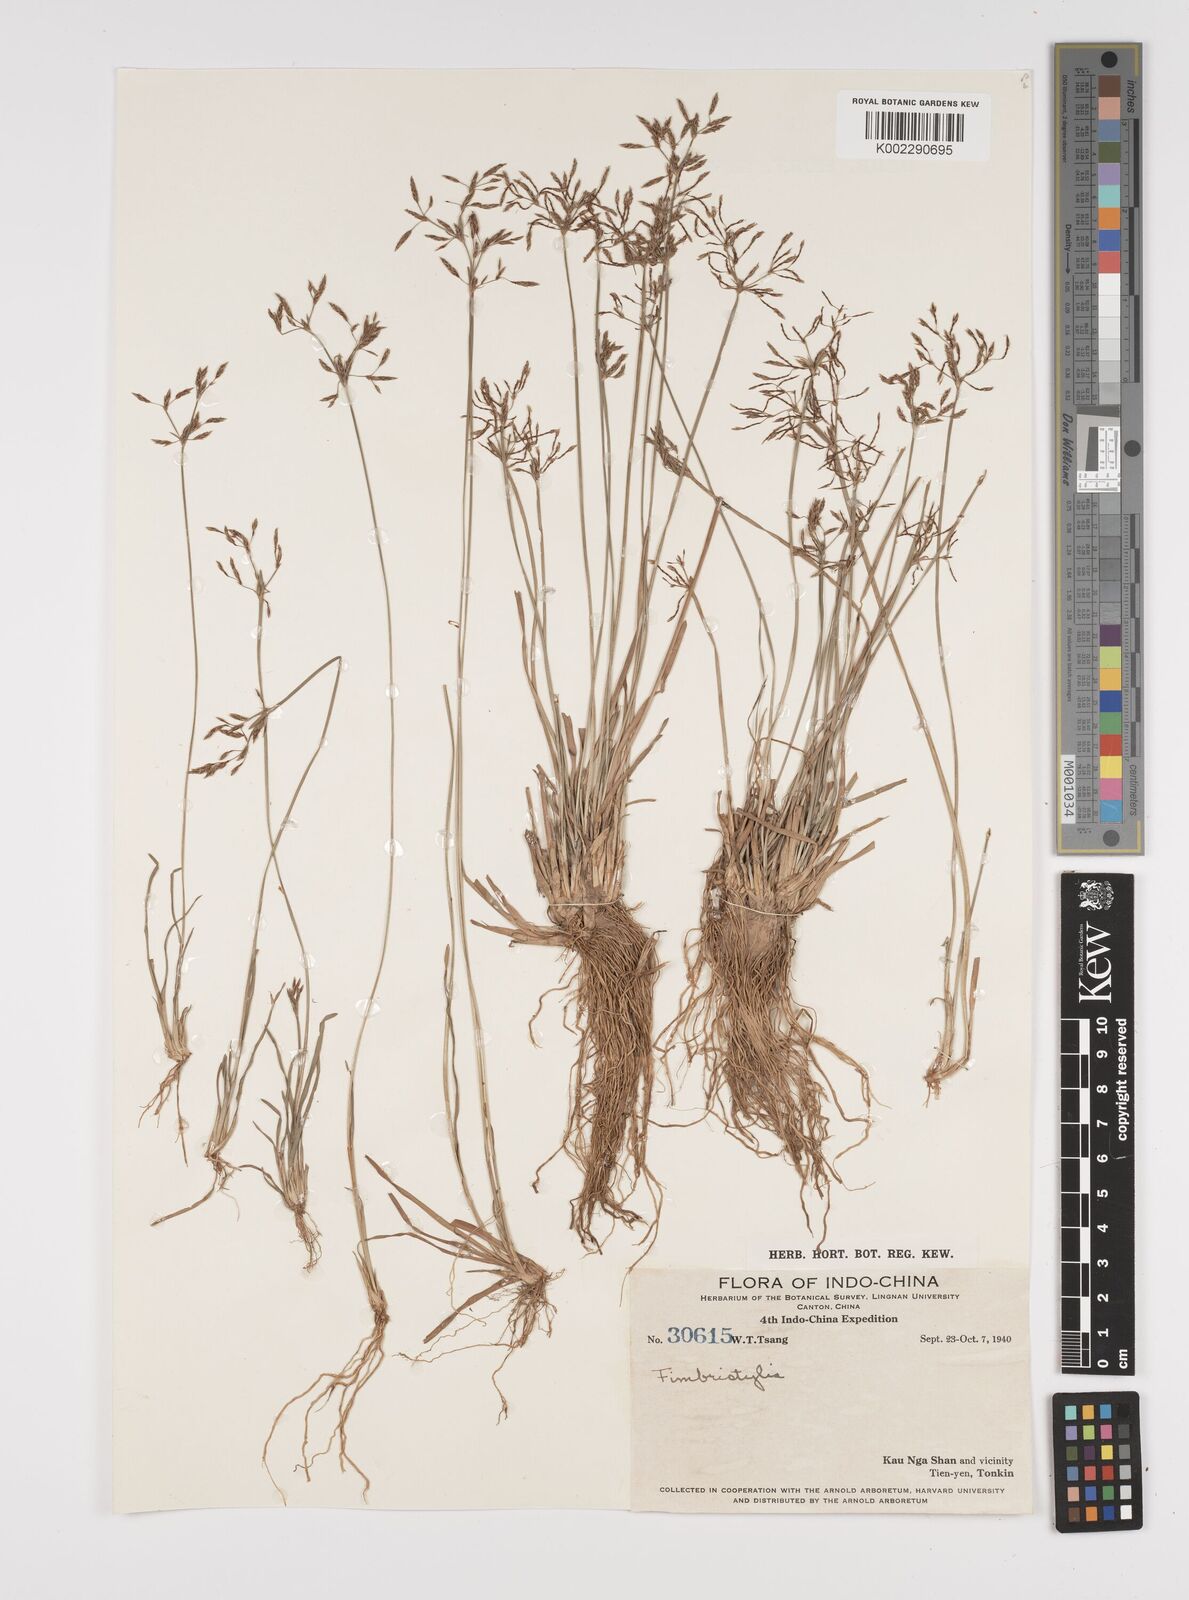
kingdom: Plantae
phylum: Tracheophyta
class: Liliopsida
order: Poales
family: Cyperaceae
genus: Fimbristylis
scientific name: Fimbristylis
